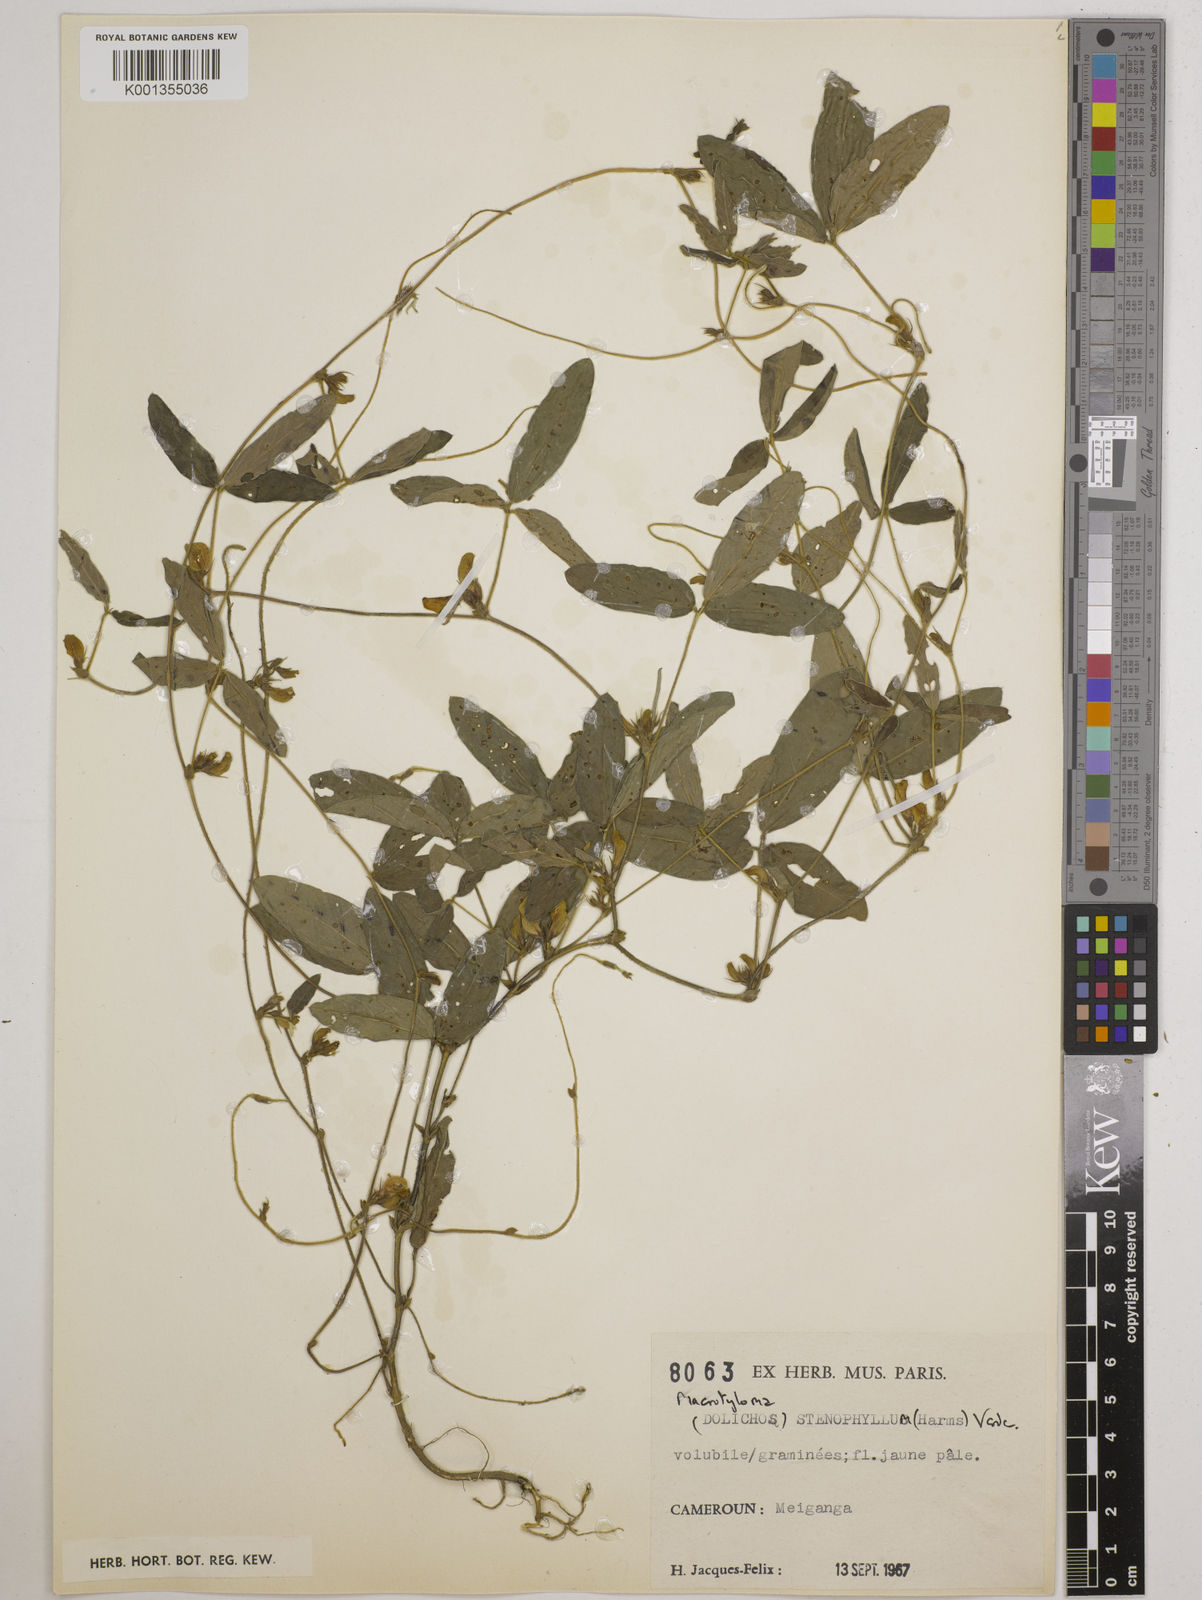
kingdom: Plantae
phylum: Tracheophyta
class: Magnoliopsida
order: Fabales
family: Fabaceae
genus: Macrotyloma
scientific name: Macrotyloma stenophyllum
